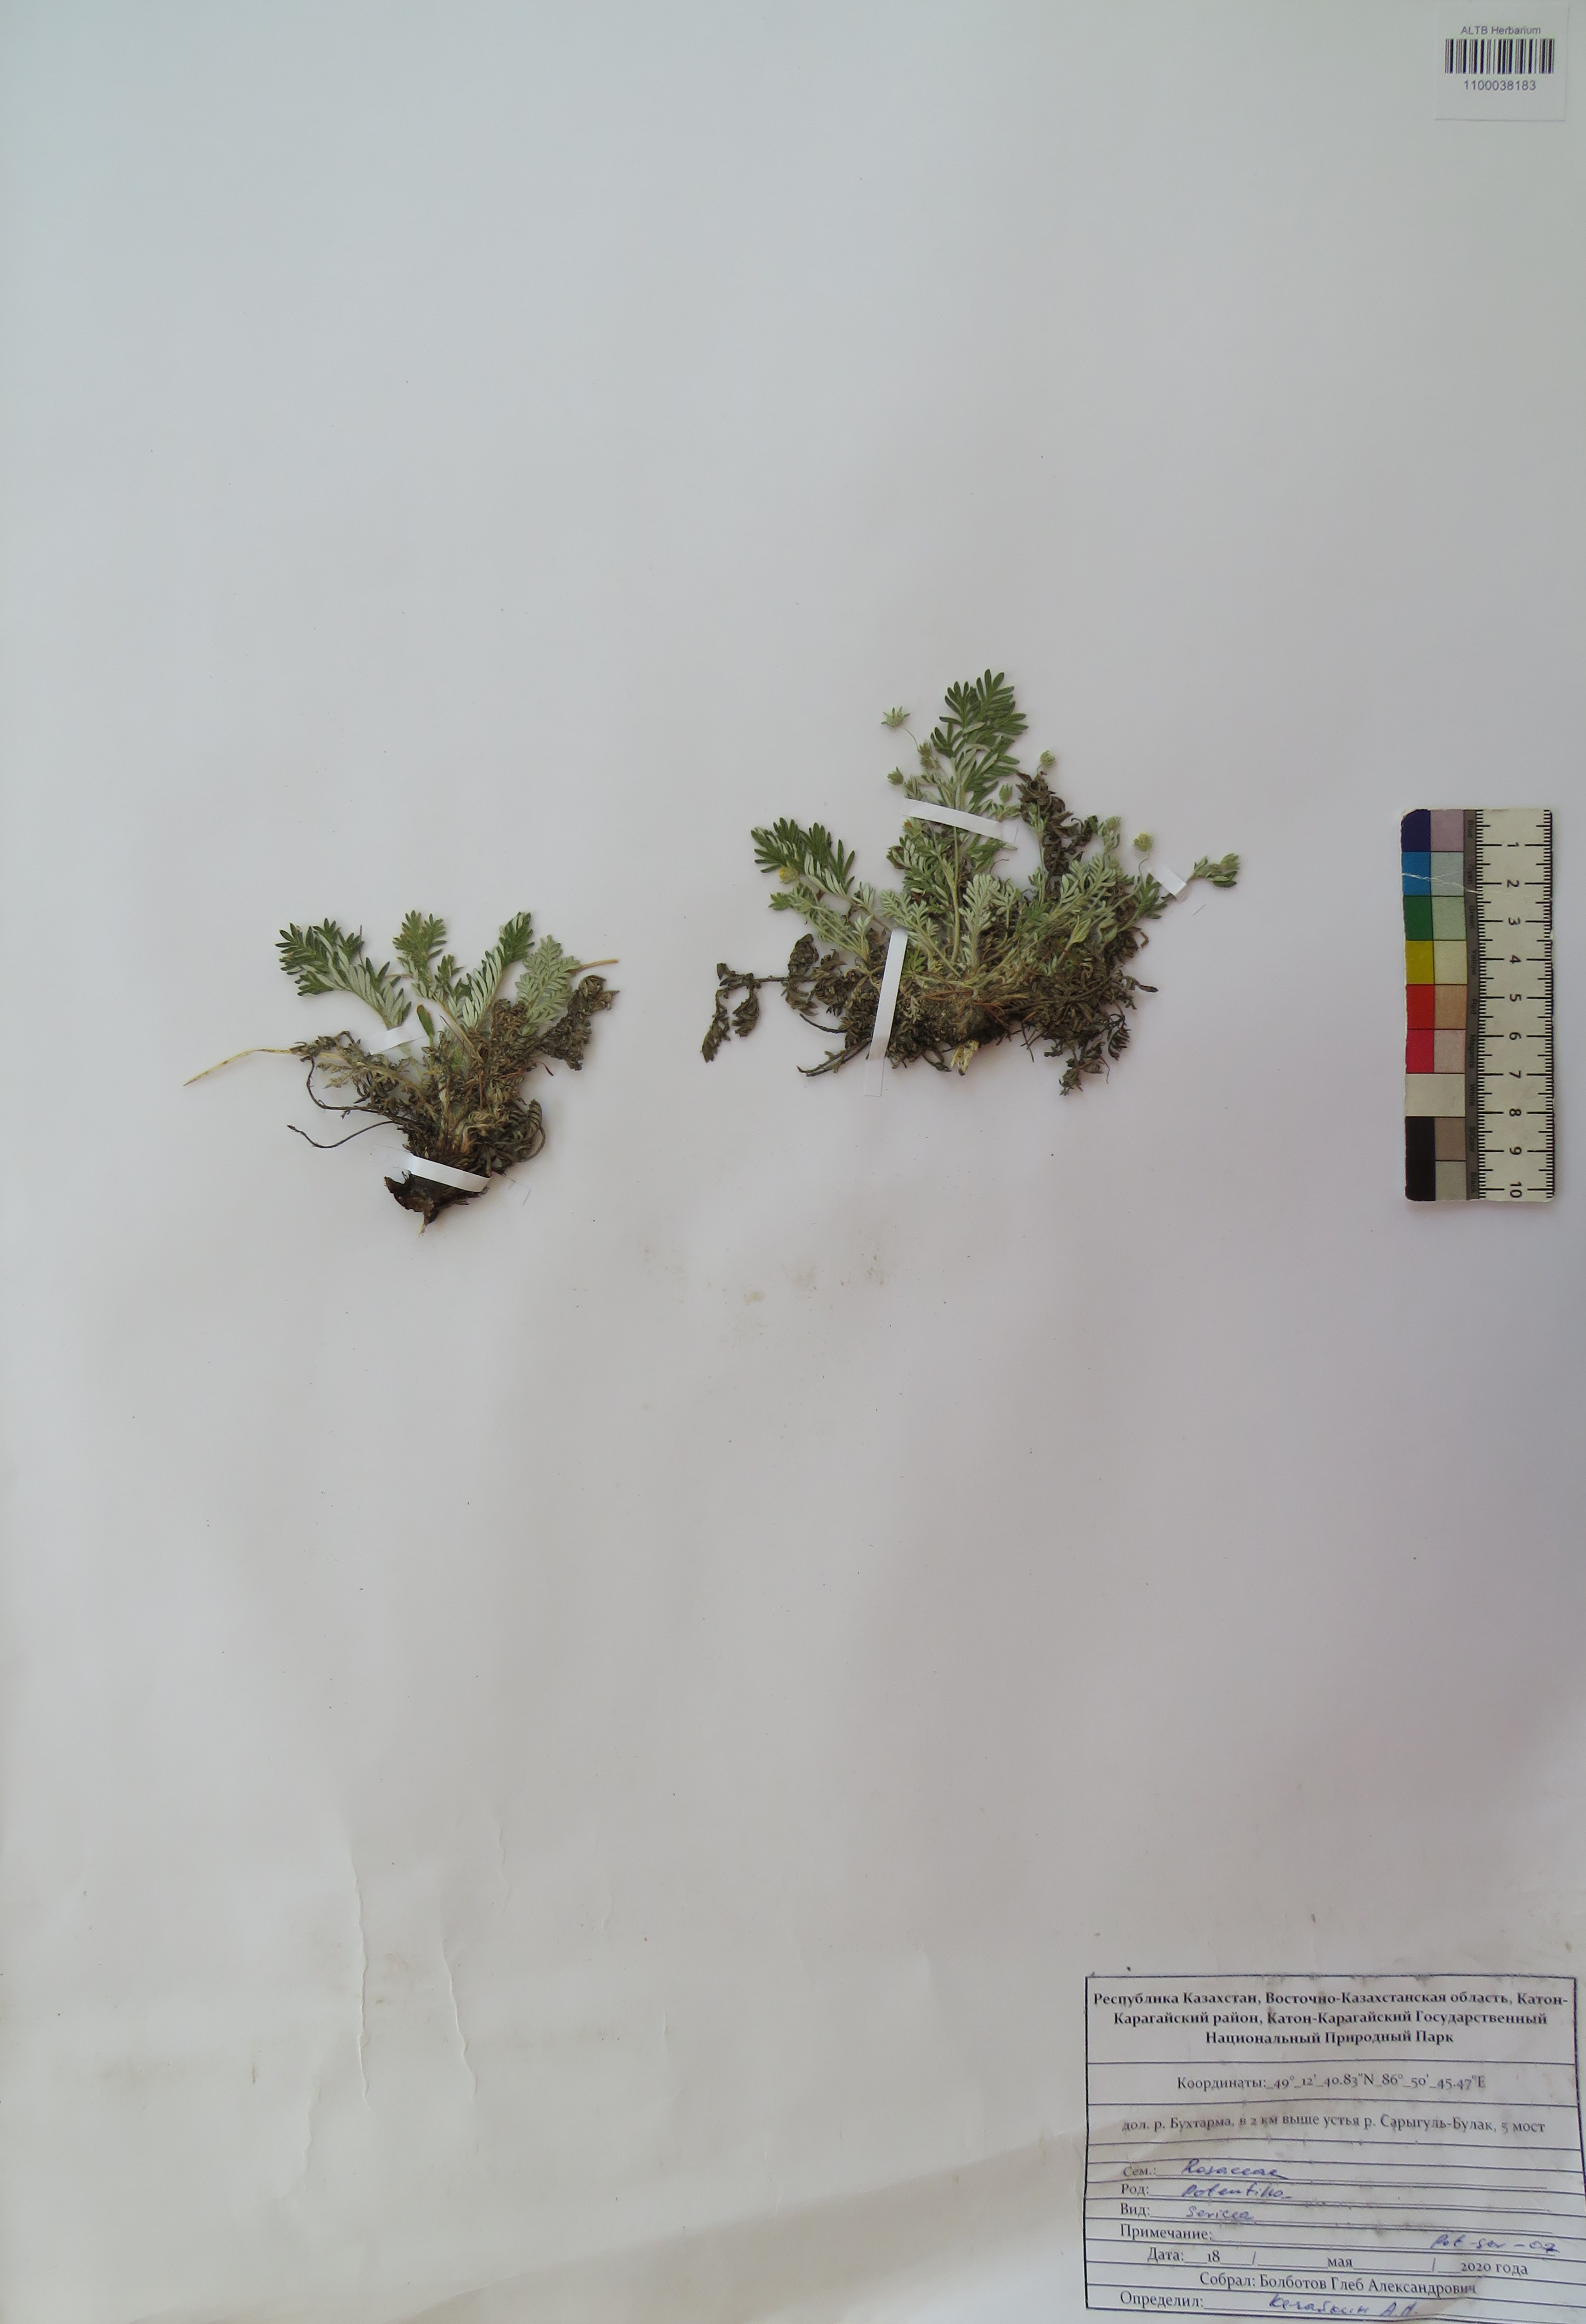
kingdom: Plantae
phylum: Tracheophyta
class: Magnoliopsida
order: Rosales
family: Rosaceae
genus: Potentilla
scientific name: Potentilla sericea
